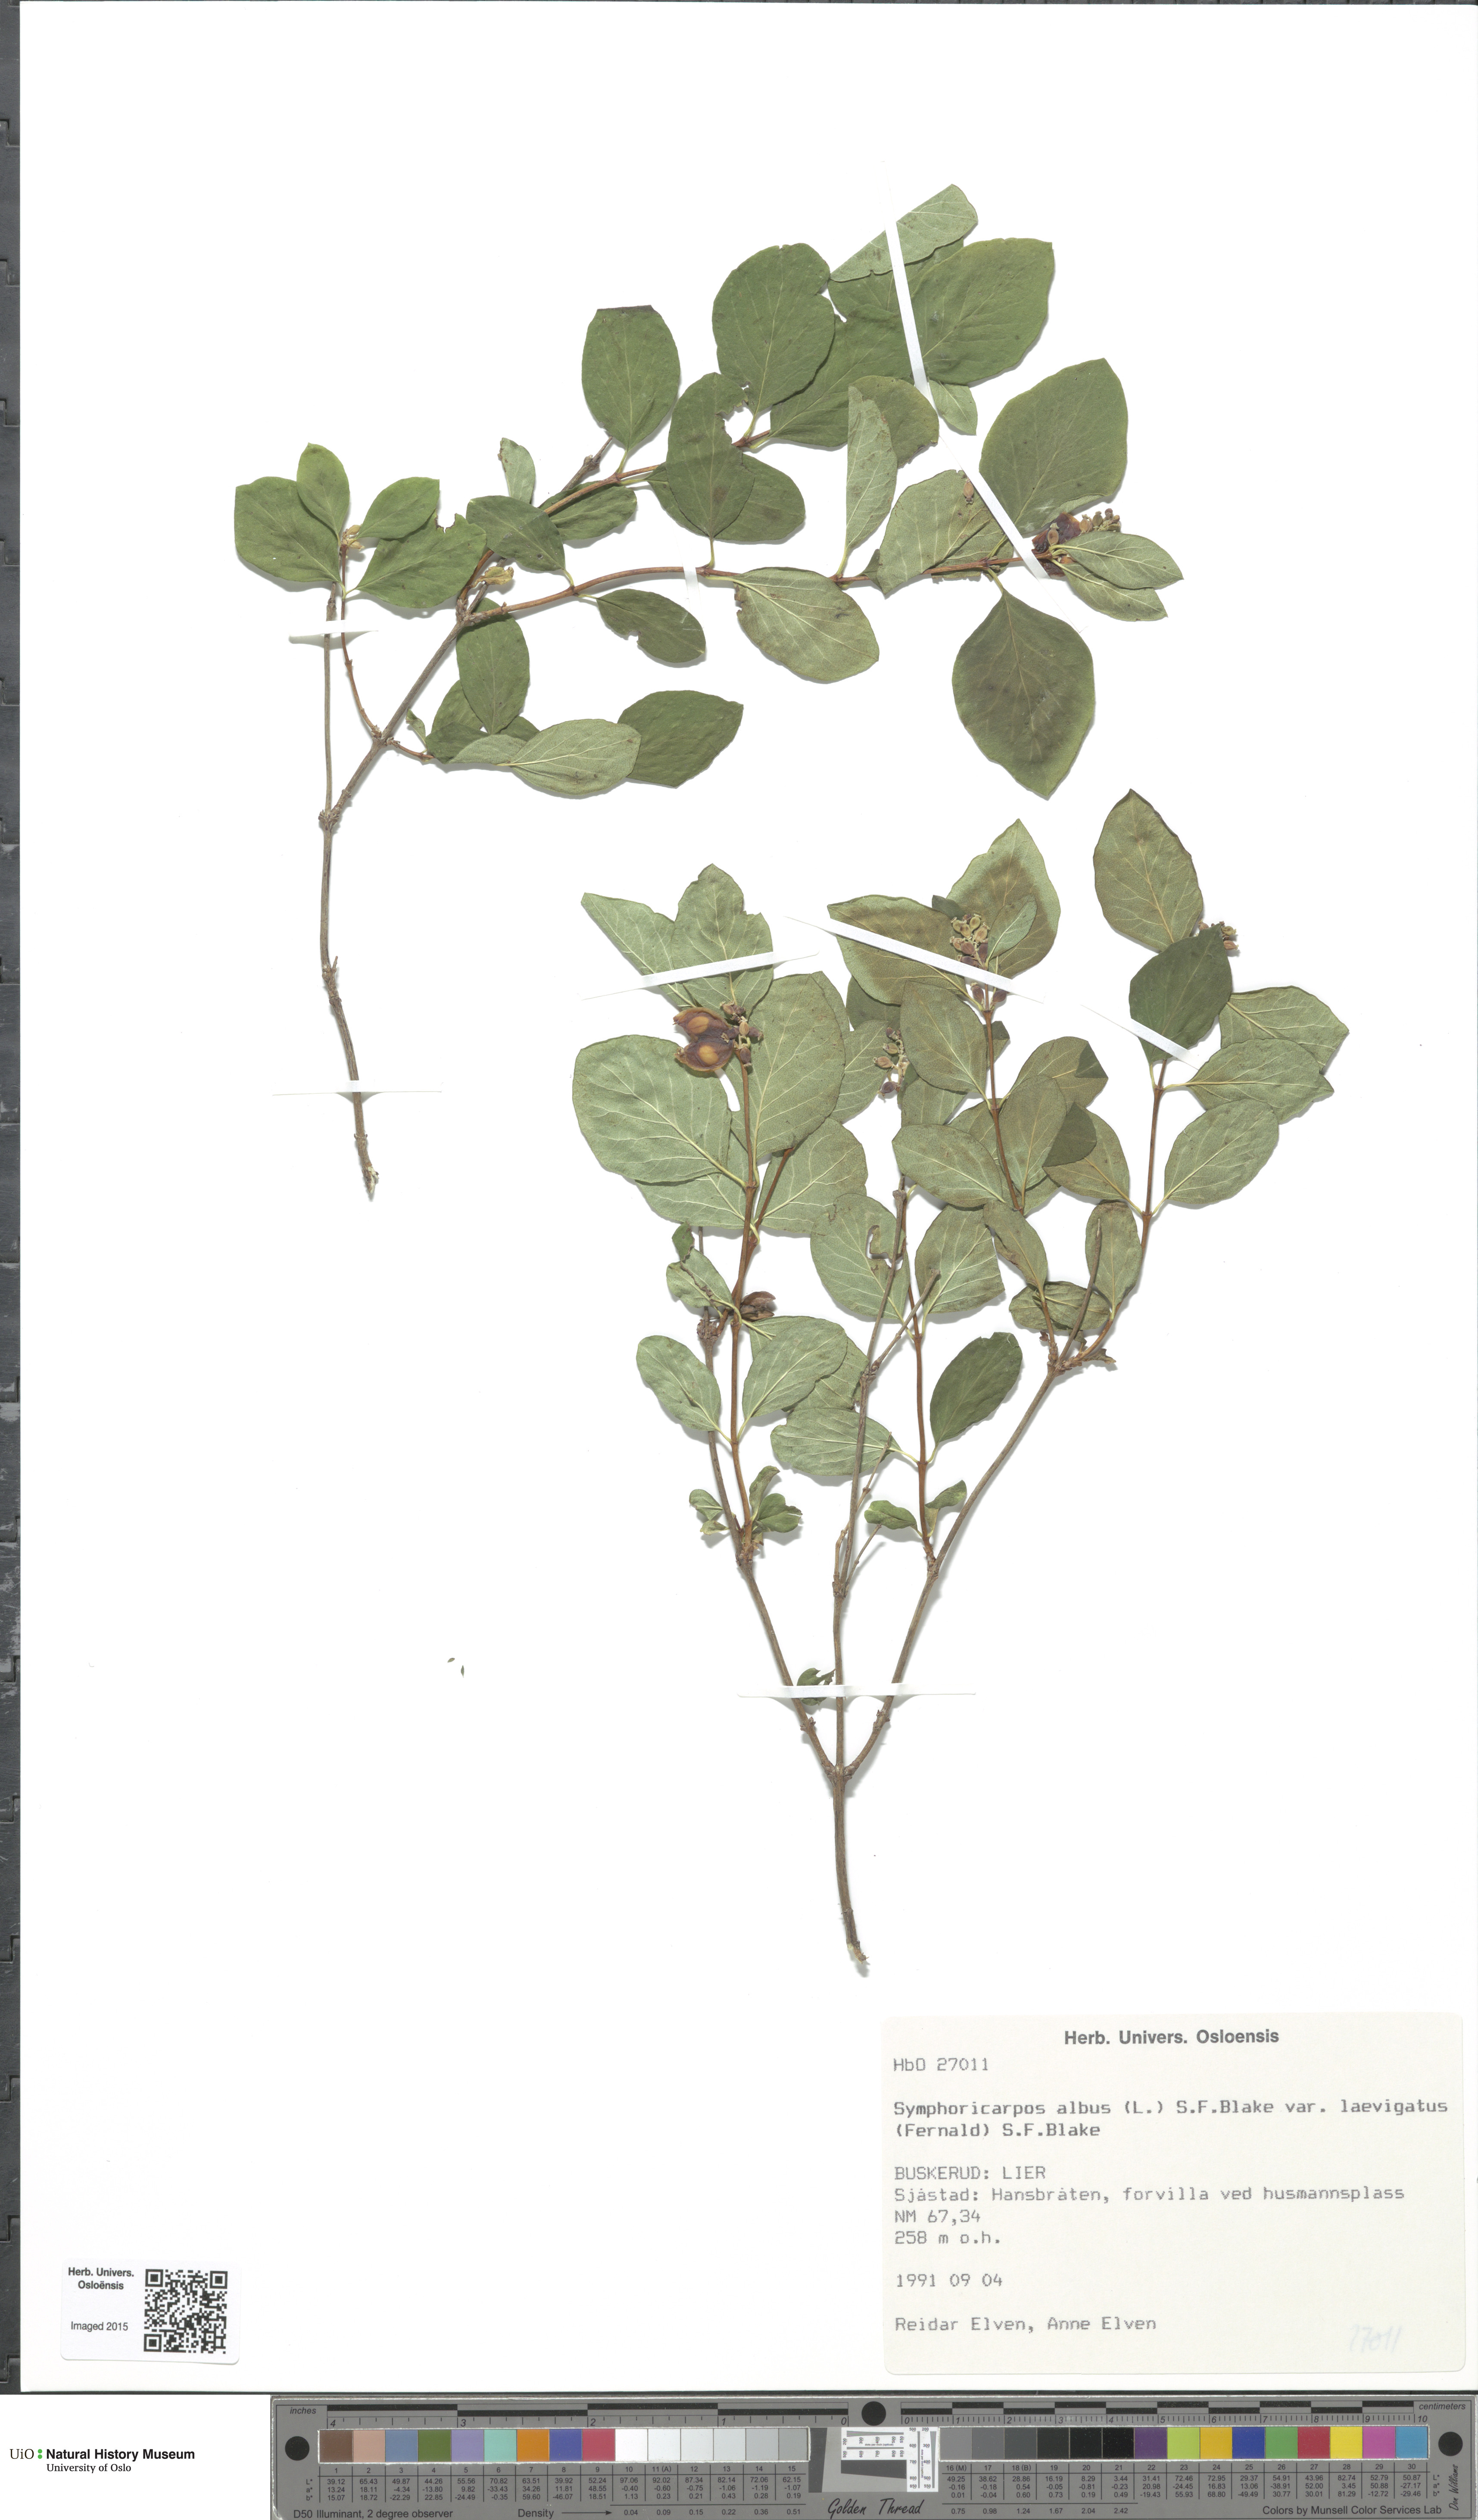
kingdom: Plantae
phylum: Tracheophyta
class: Magnoliopsida
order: Dipsacales
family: Caprifoliaceae
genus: Symphoricarpos
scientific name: Symphoricarpos albus
